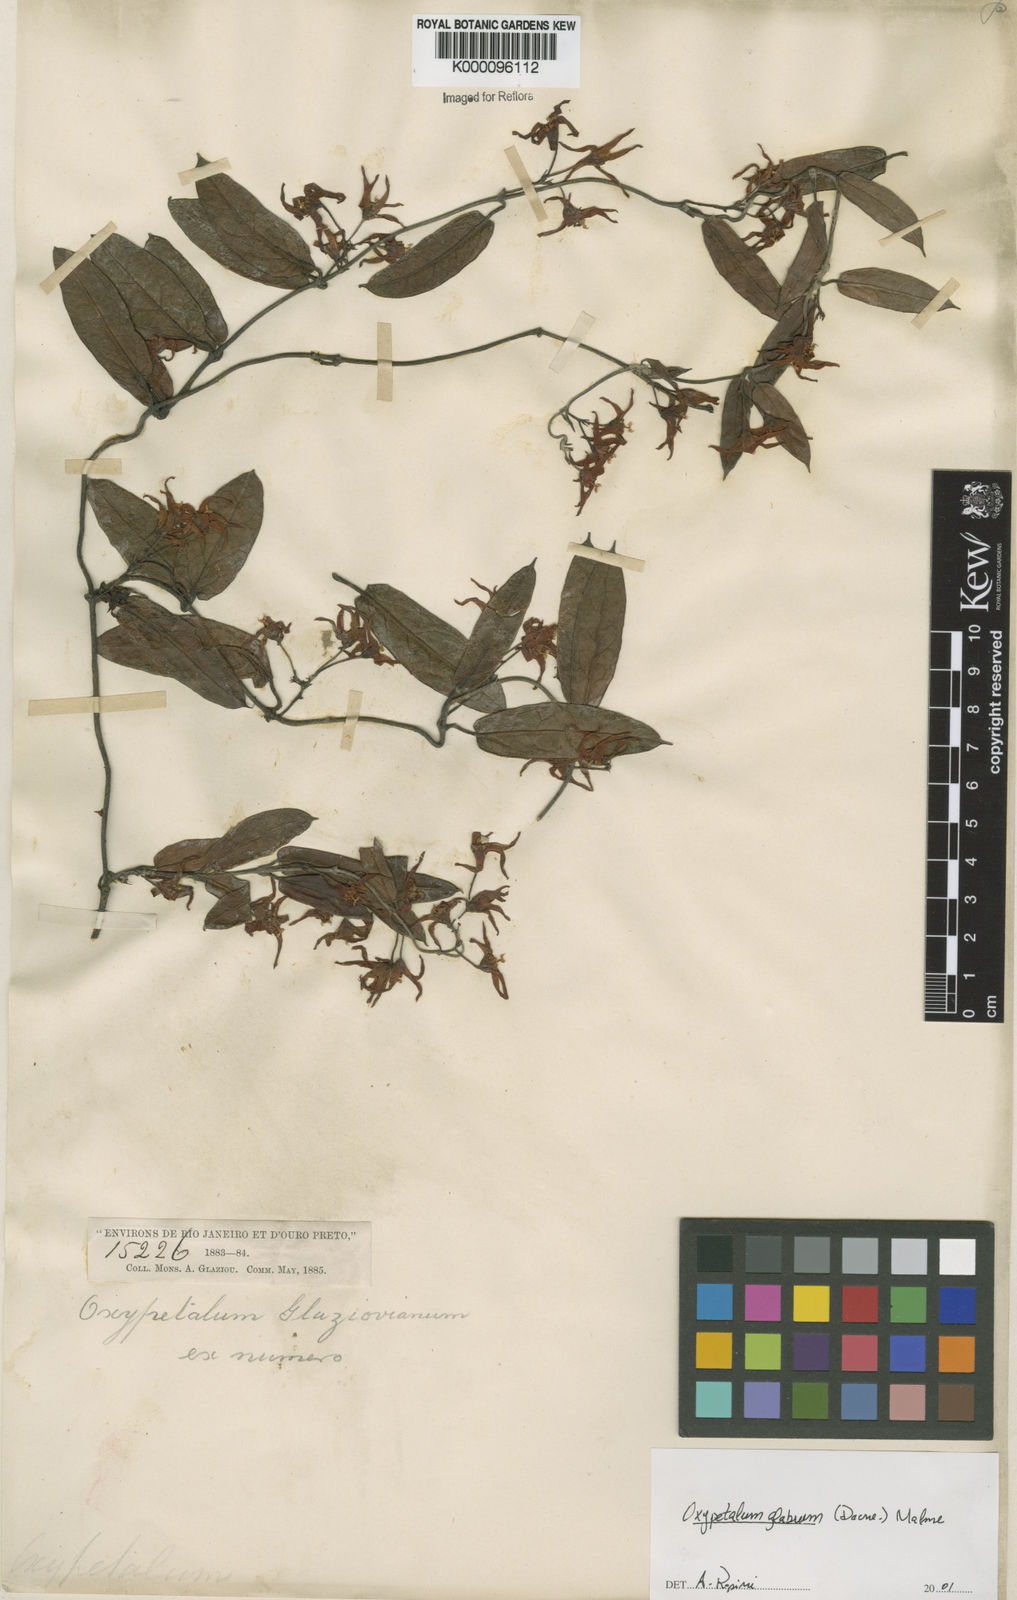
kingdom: Plantae
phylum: Tracheophyta
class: Magnoliopsida
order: Gentianales
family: Apocynaceae
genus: Oxypetalum
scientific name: Oxypetalum insigne
